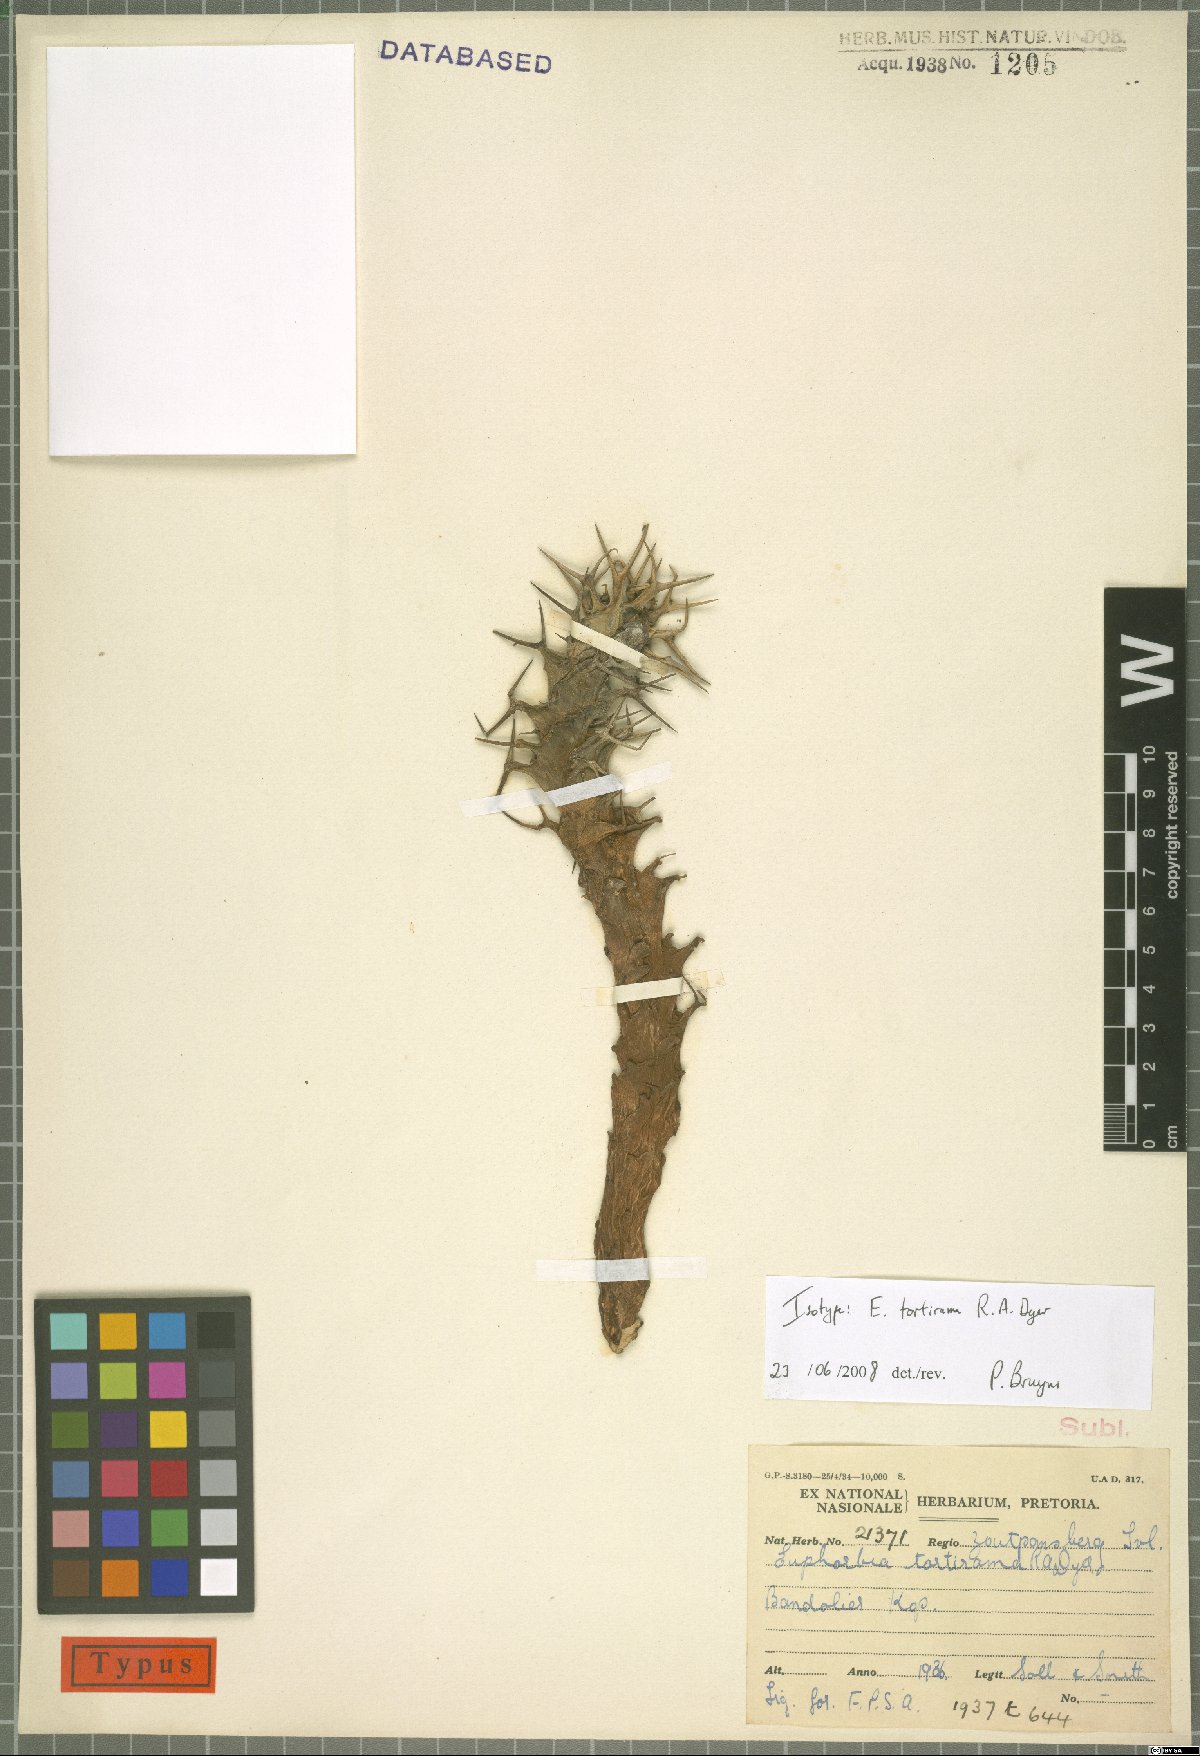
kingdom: Plantae
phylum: Tracheophyta
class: Magnoliopsida
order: Malpighiales
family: Euphorbiaceae
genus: Euphorbia
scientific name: Euphorbia tortirama
